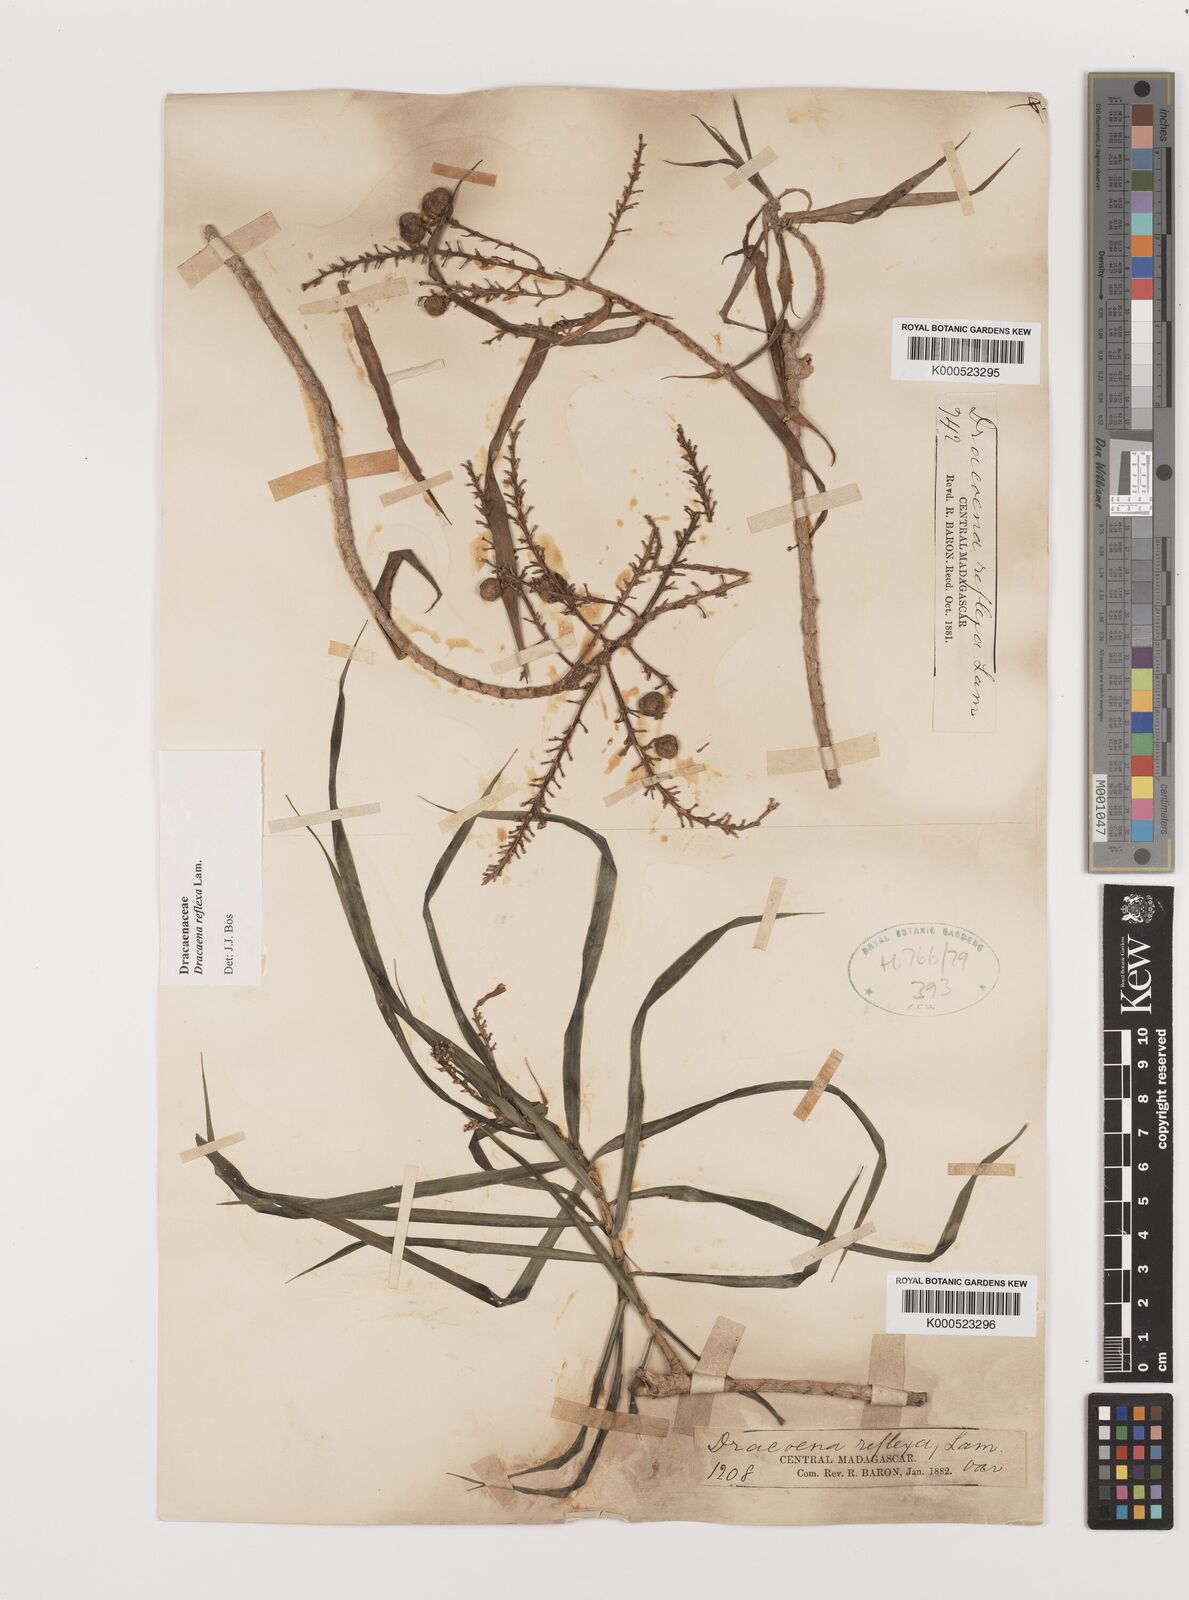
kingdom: Plantae
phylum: Tracheophyta
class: Liliopsida
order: Asparagales
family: Asparagaceae
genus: Dracaena
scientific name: Dracaena reflexa
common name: Song-of-india
